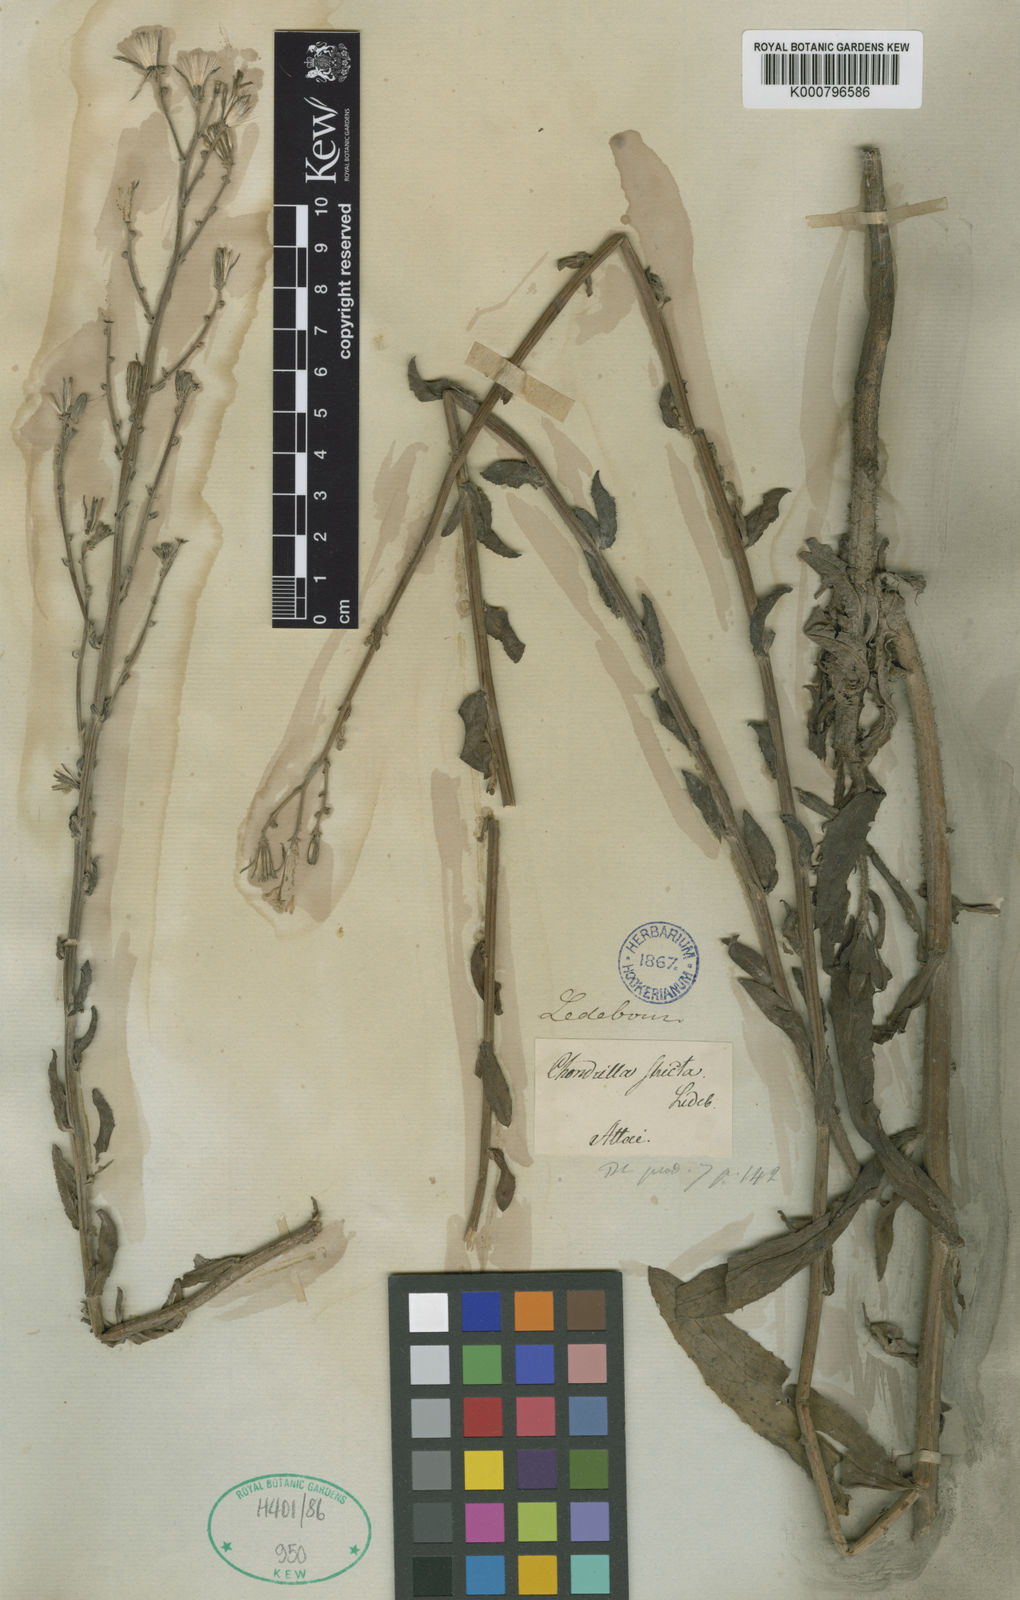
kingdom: Plantae
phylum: Tracheophyta
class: Magnoliopsida
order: Asterales
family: Asteraceae
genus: Chondrilla
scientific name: Chondrilla aspera
